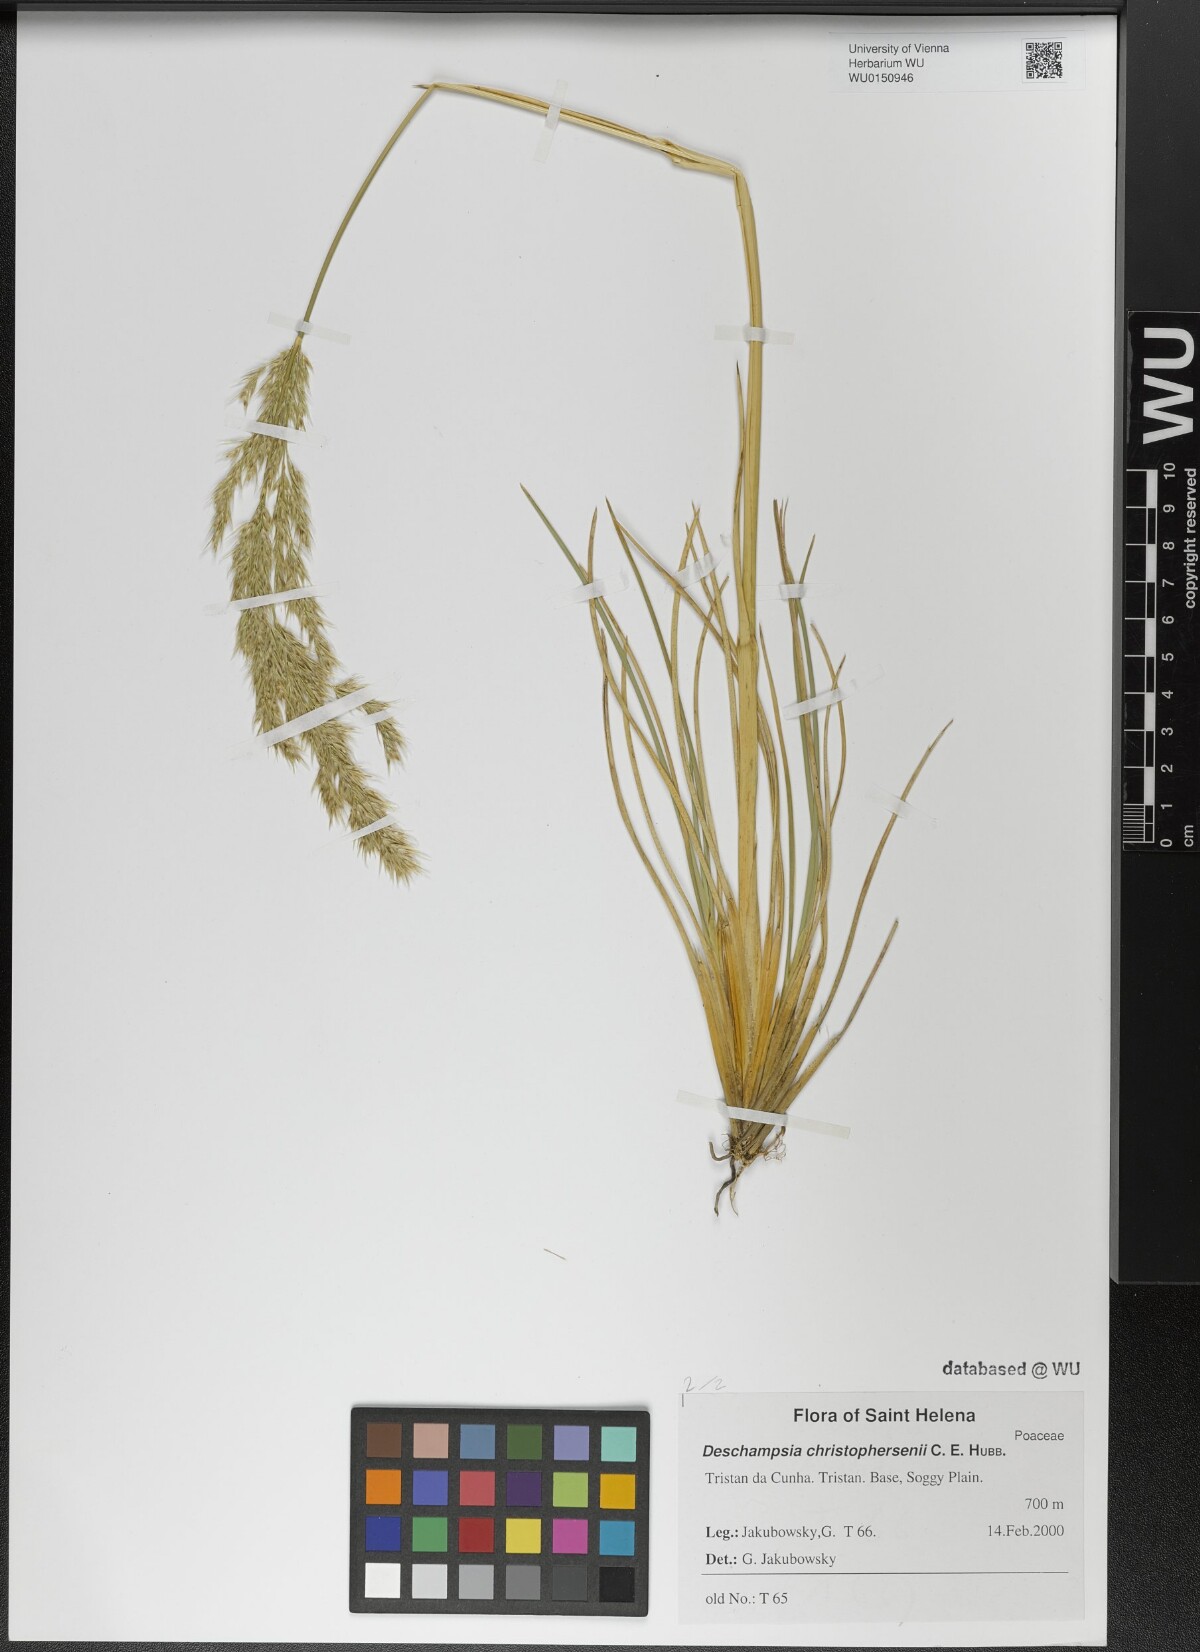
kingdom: Plantae
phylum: Tracheophyta
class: Liliopsida
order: Poales
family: Poaceae
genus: Deschampsia
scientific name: Deschampsia christophersenii
